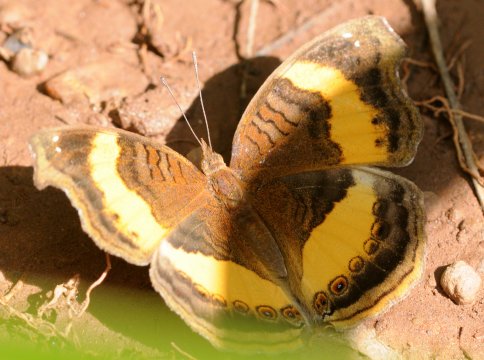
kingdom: Animalia
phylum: Arthropoda
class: Insecta
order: Lepidoptera
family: Nymphalidae
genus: Junonia
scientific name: Junonia terea
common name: Soldier Pansy
